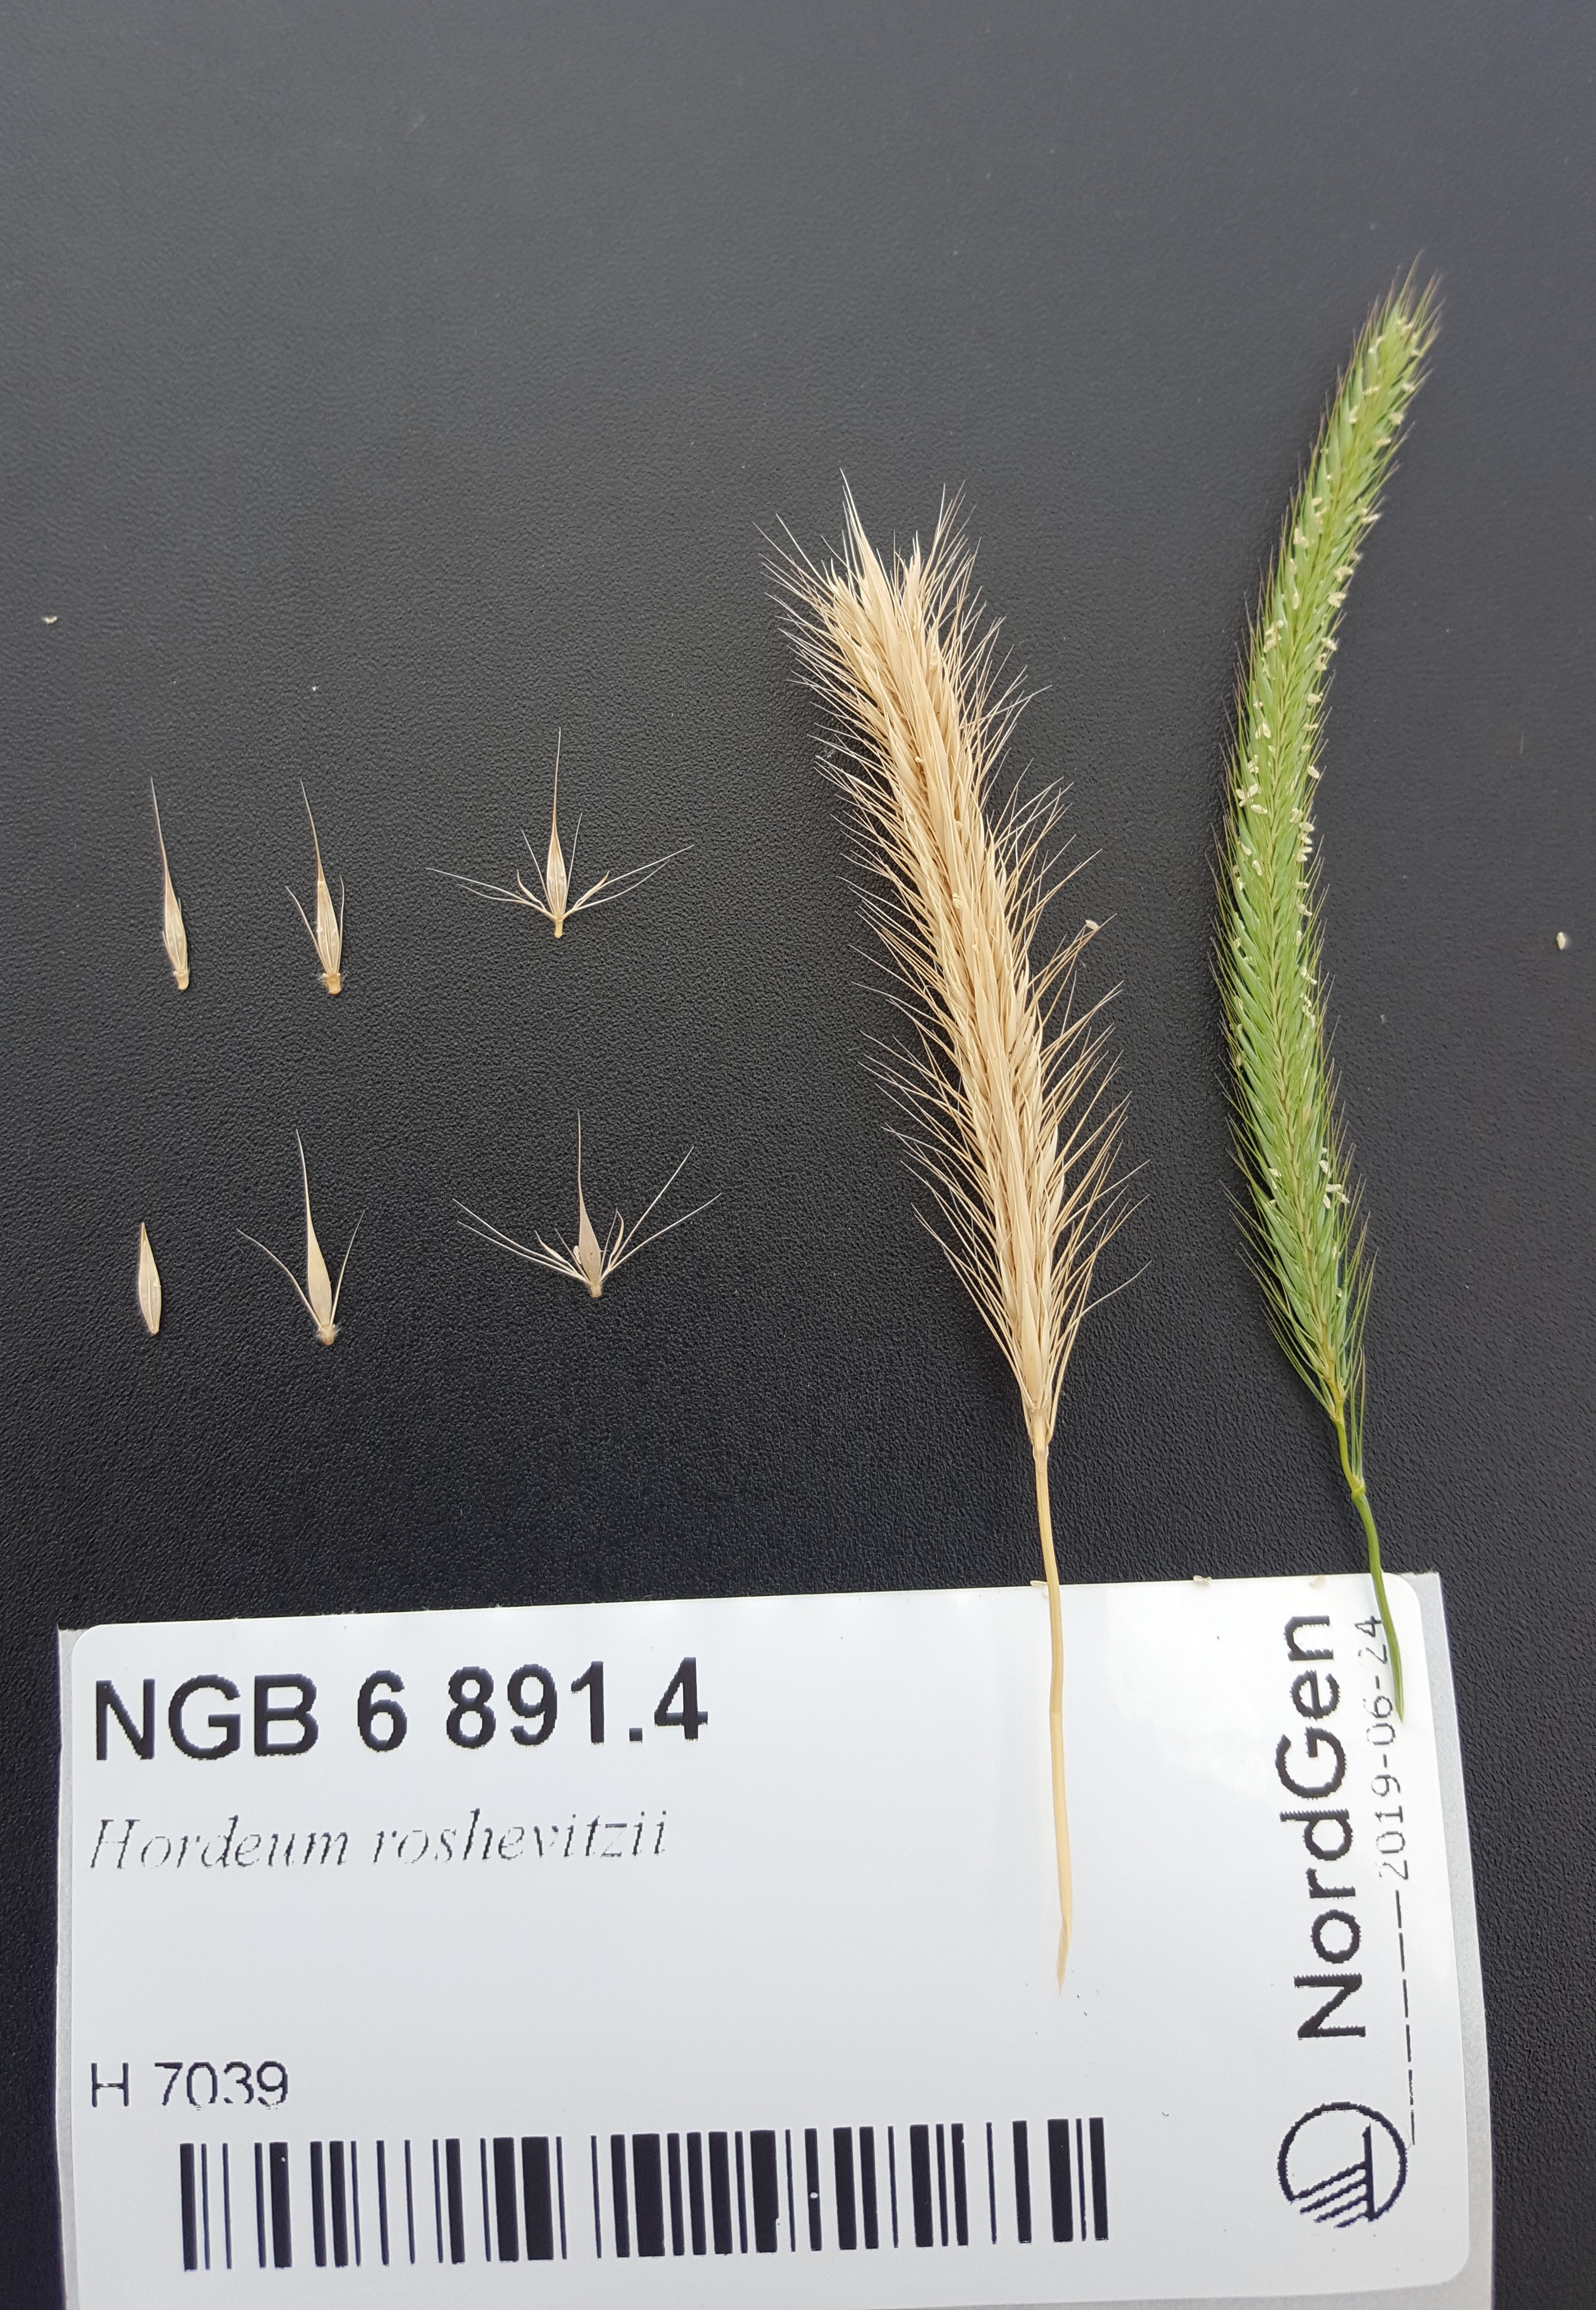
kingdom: Plantae
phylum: Tracheophyta
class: Liliopsida
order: Poales
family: Poaceae
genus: Hordeum
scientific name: Hordeum roshevitzii
